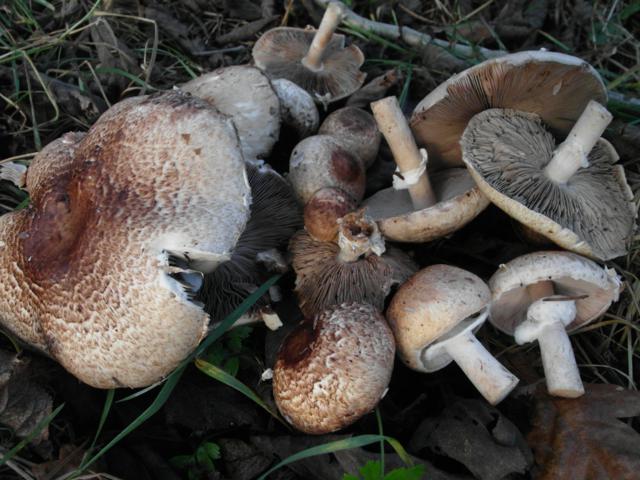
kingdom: Fungi
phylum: Basidiomycota
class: Agaricomycetes
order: Agaricales
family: Agaricaceae
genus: Agaricus
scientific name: Agaricus impudicus
